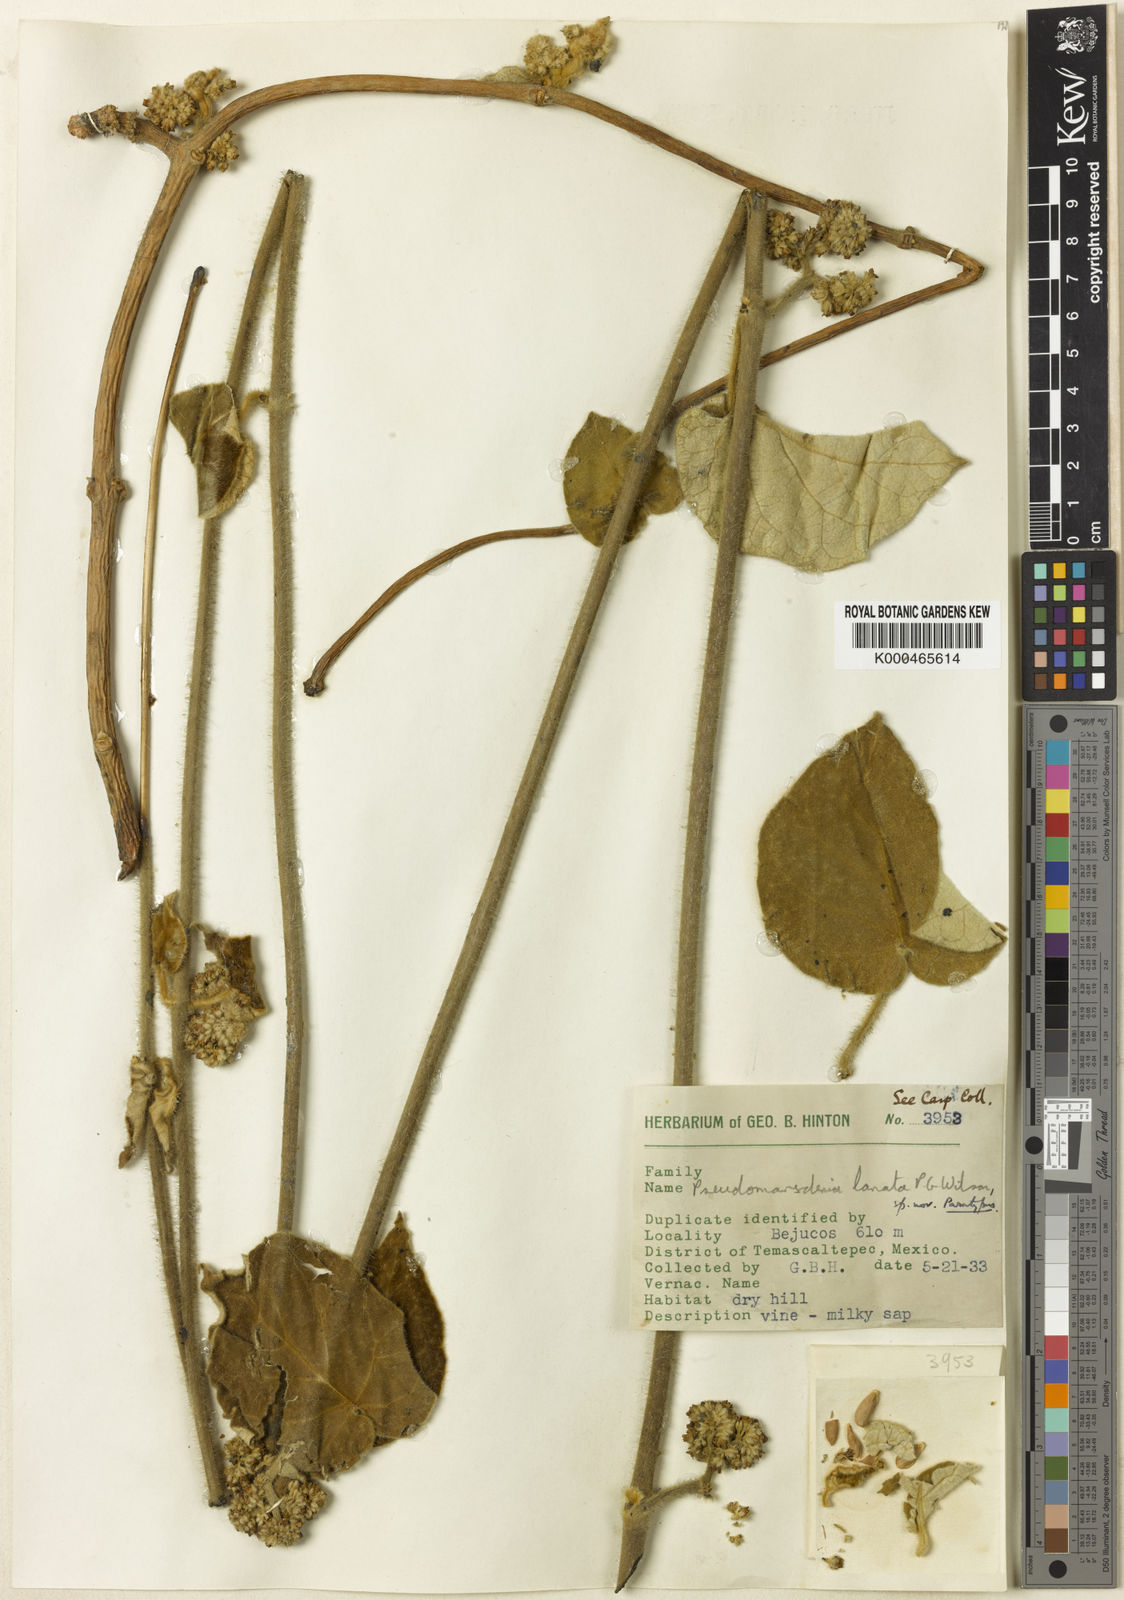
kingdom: Plantae
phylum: Tracheophyta
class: Magnoliopsida
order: Gentianales
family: Apocynaceae
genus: Ruehssia
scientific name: Ruehssia lanata
